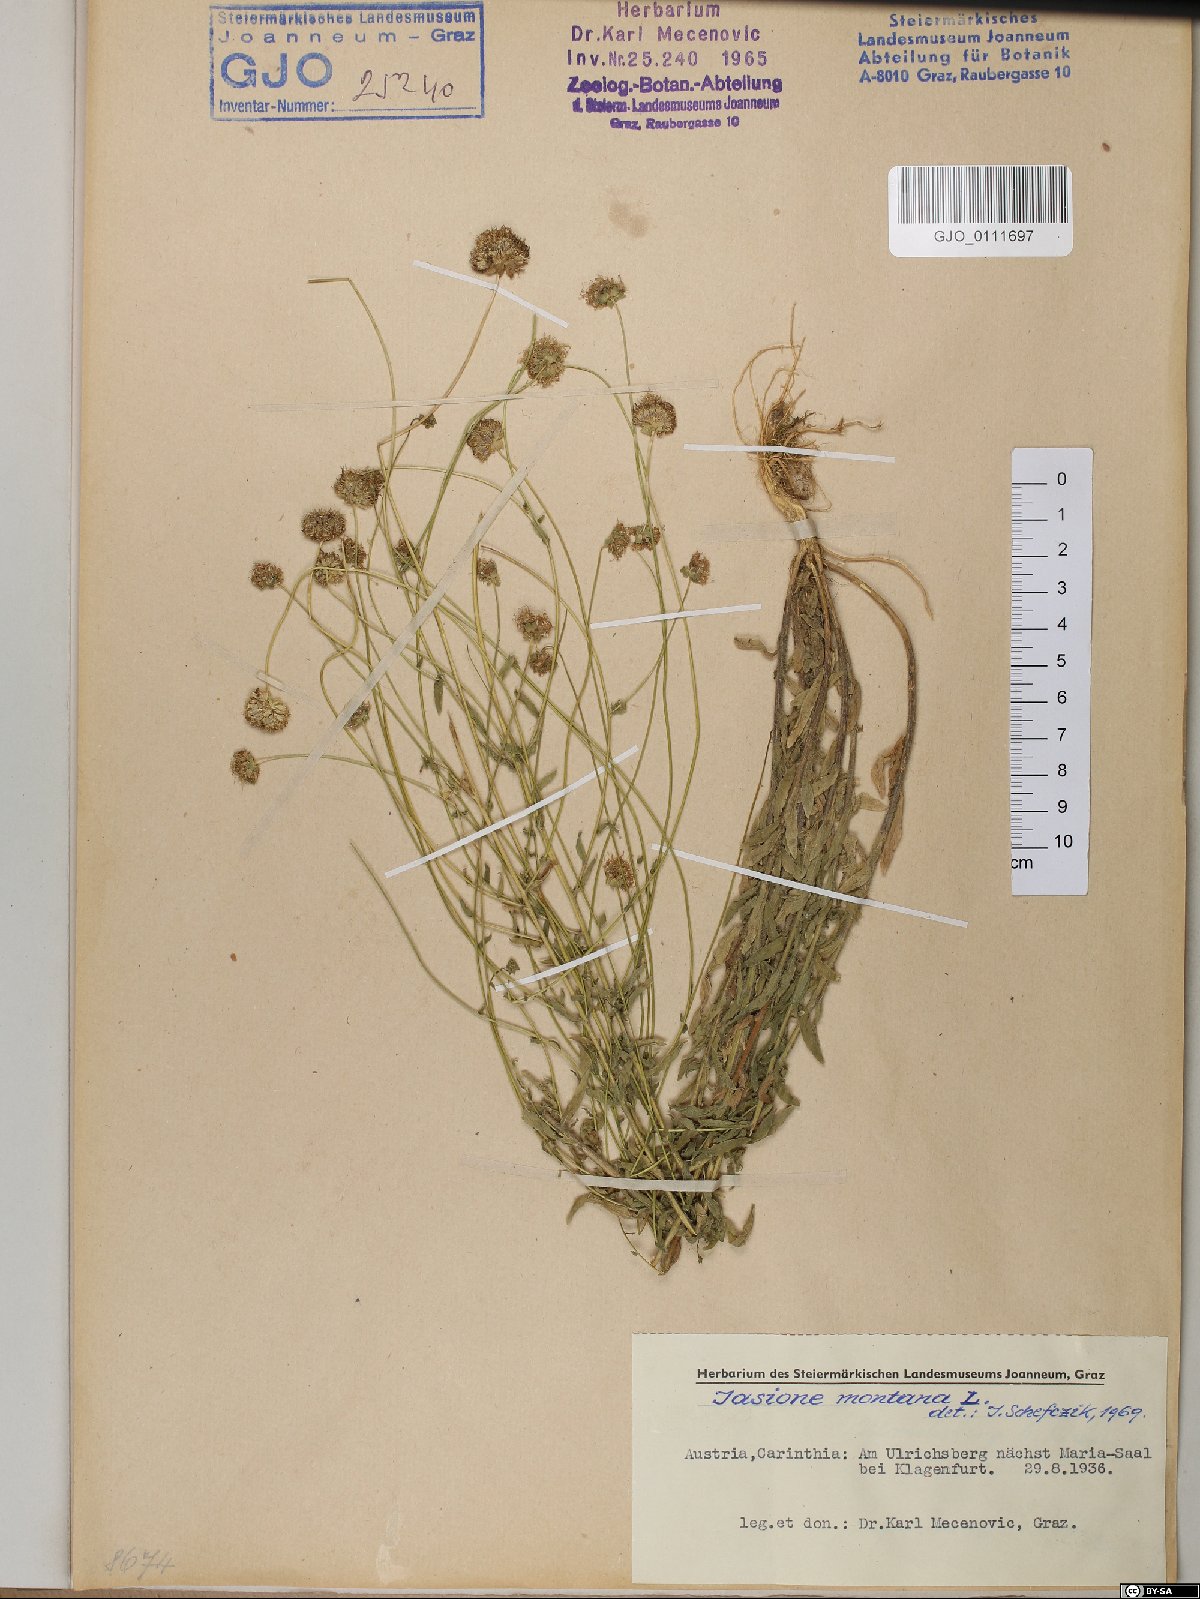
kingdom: Plantae
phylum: Tracheophyta
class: Magnoliopsida
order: Asterales
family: Campanulaceae
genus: Jasione
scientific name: Jasione montana
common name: Sheep's-bit
